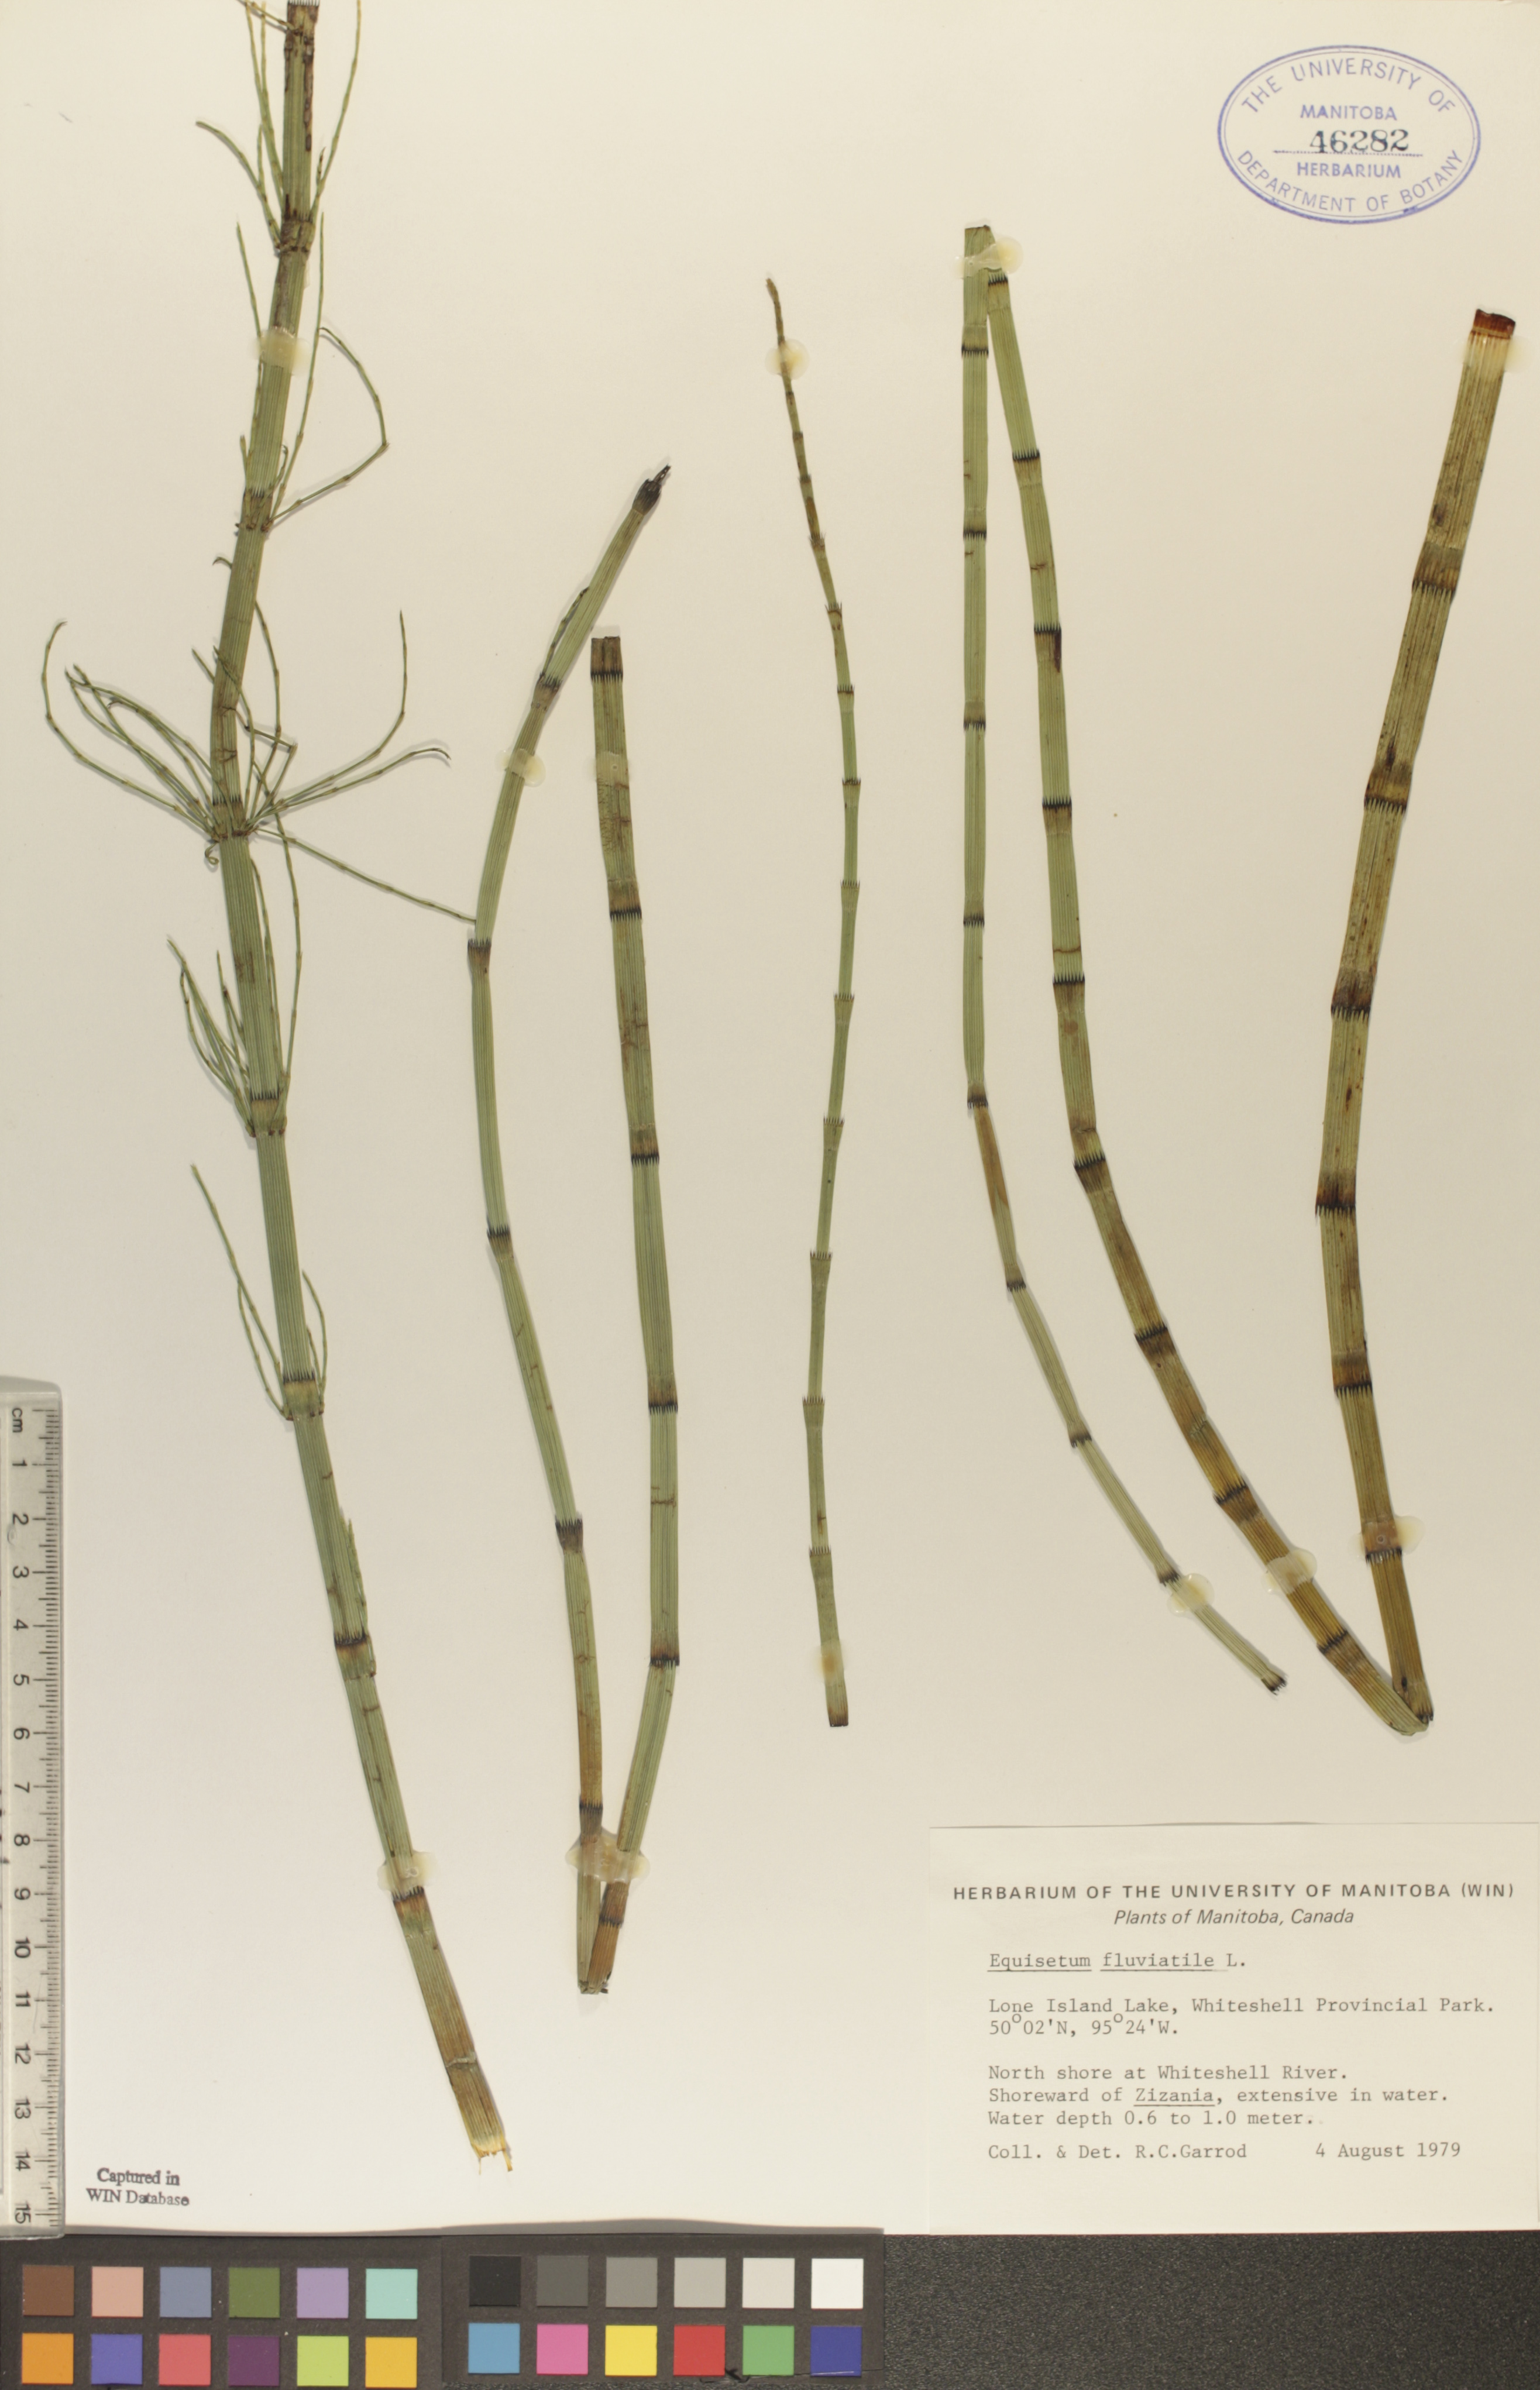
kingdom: Plantae
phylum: Tracheophyta
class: Polypodiopsida
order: Equisetales
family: Equisetaceae
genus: Equisetum
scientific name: Equisetum fluviatile
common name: Water horsetail
